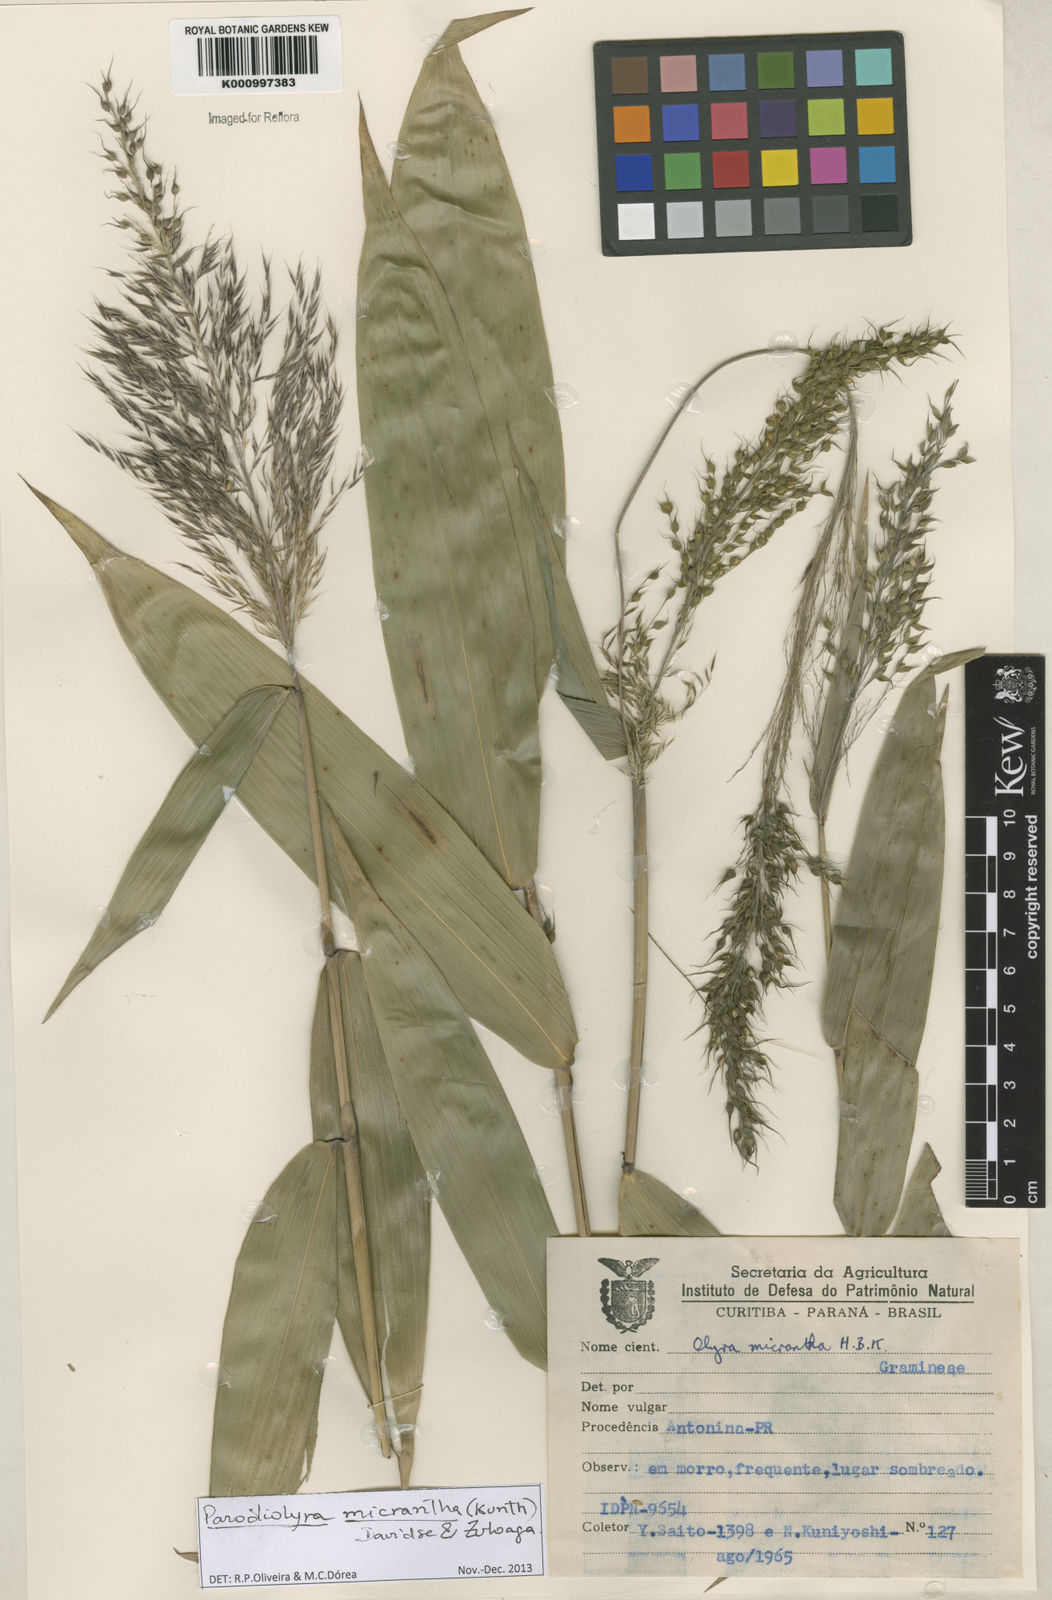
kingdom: Plantae
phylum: Tracheophyta
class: Liliopsida
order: Poales
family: Poaceae
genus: Taquara
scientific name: Taquara micrantha
